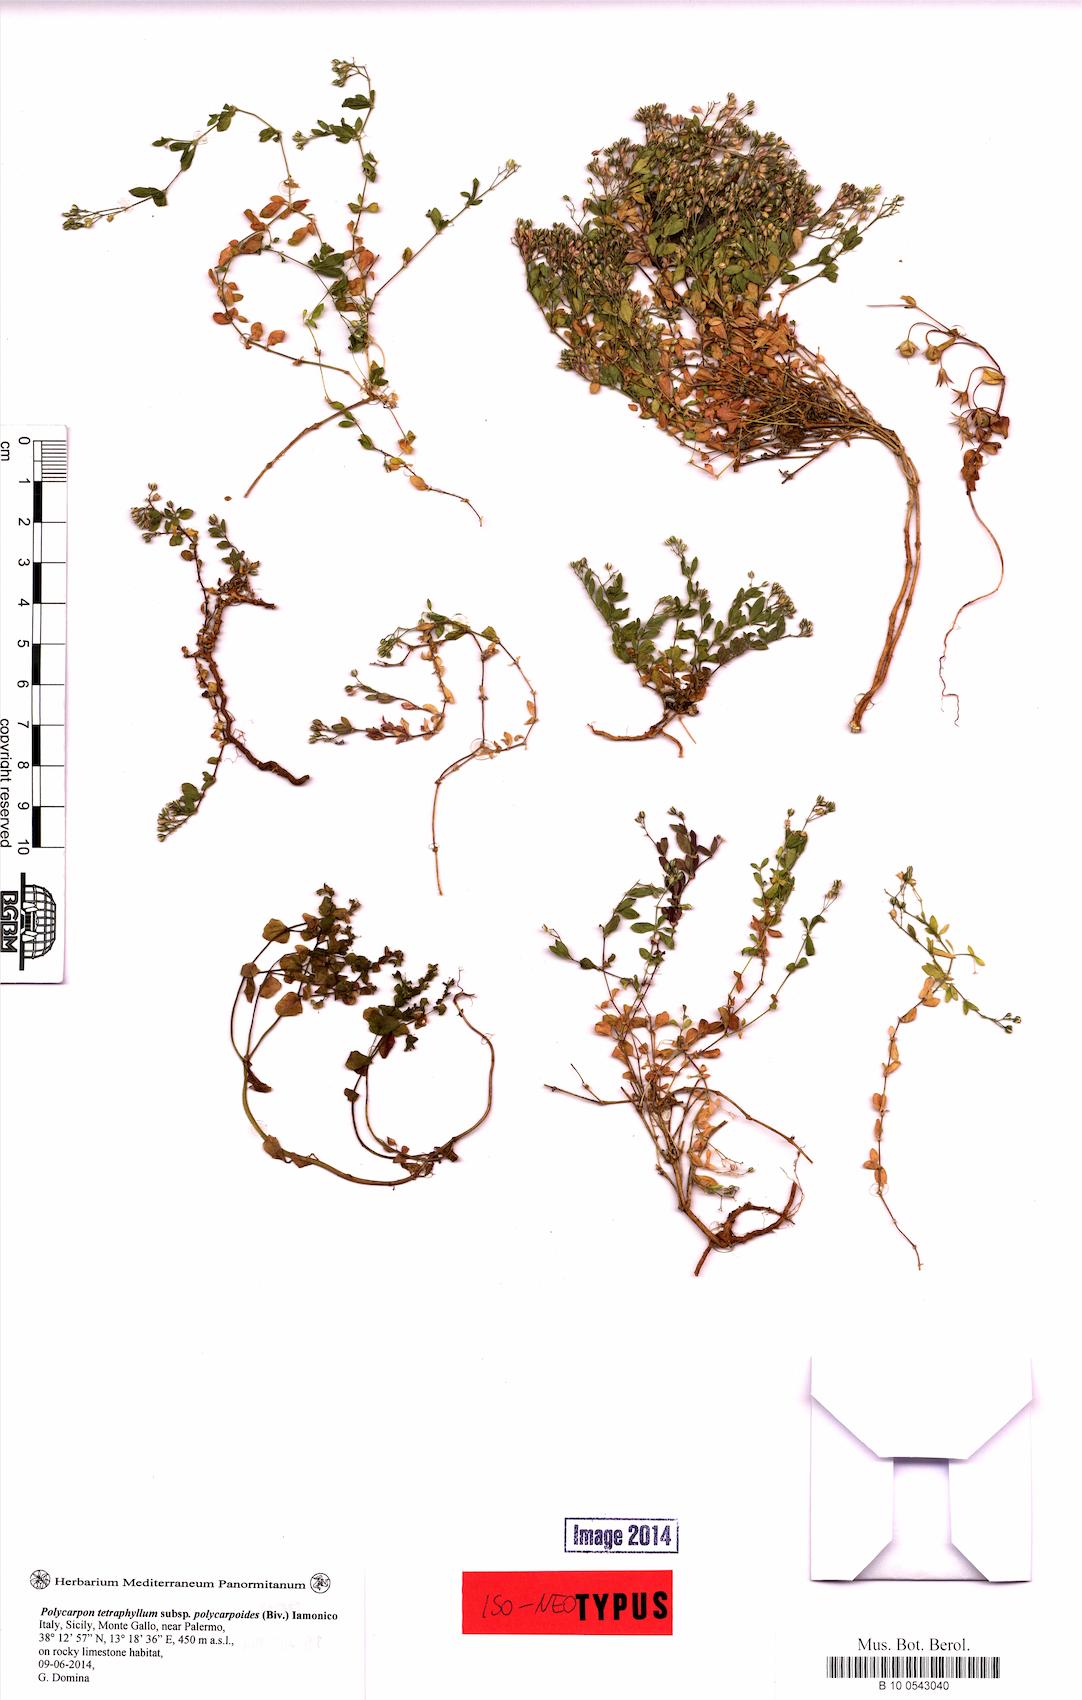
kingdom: Plantae
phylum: Tracheophyta
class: Magnoliopsida
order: Caryophyllales
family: Caryophyllaceae
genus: Polycarpon
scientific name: Polycarpon polycarpoides
